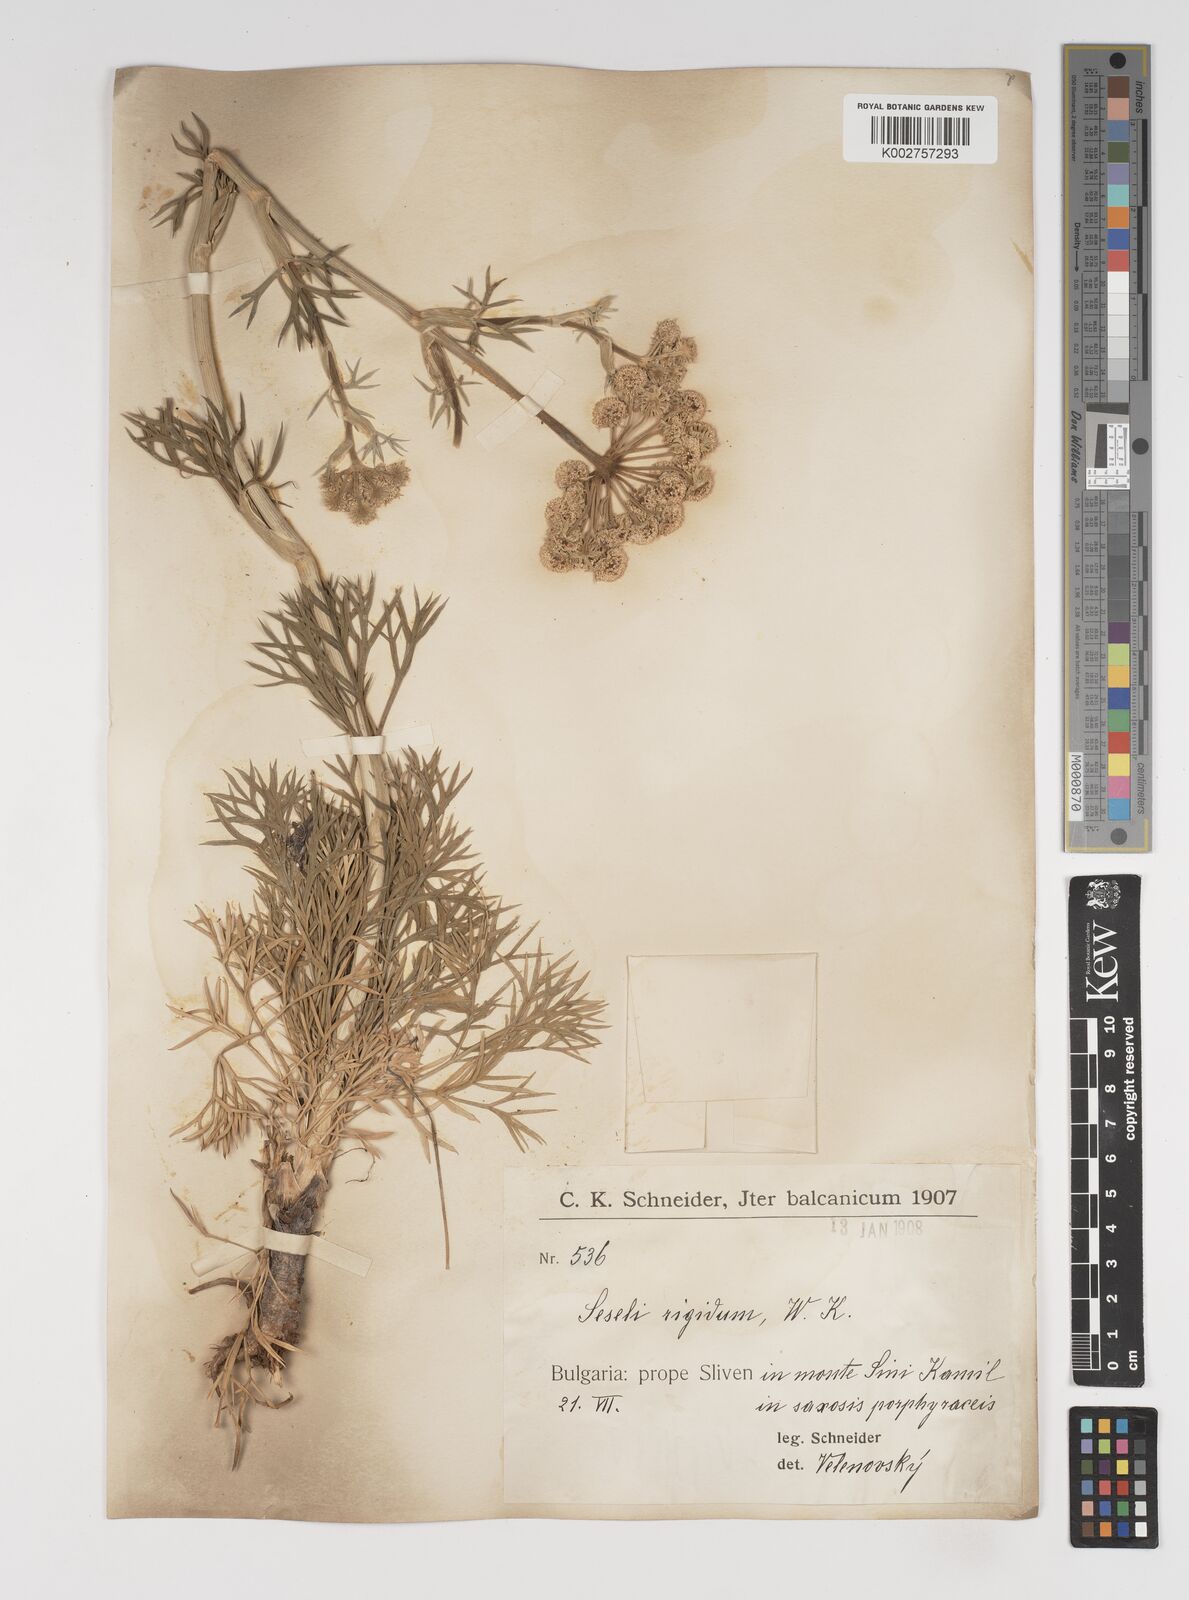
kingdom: Plantae
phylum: Tracheophyta
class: Magnoliopsida
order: Apiales
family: Apiaceae
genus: Seseli
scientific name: Seseli rigidum
